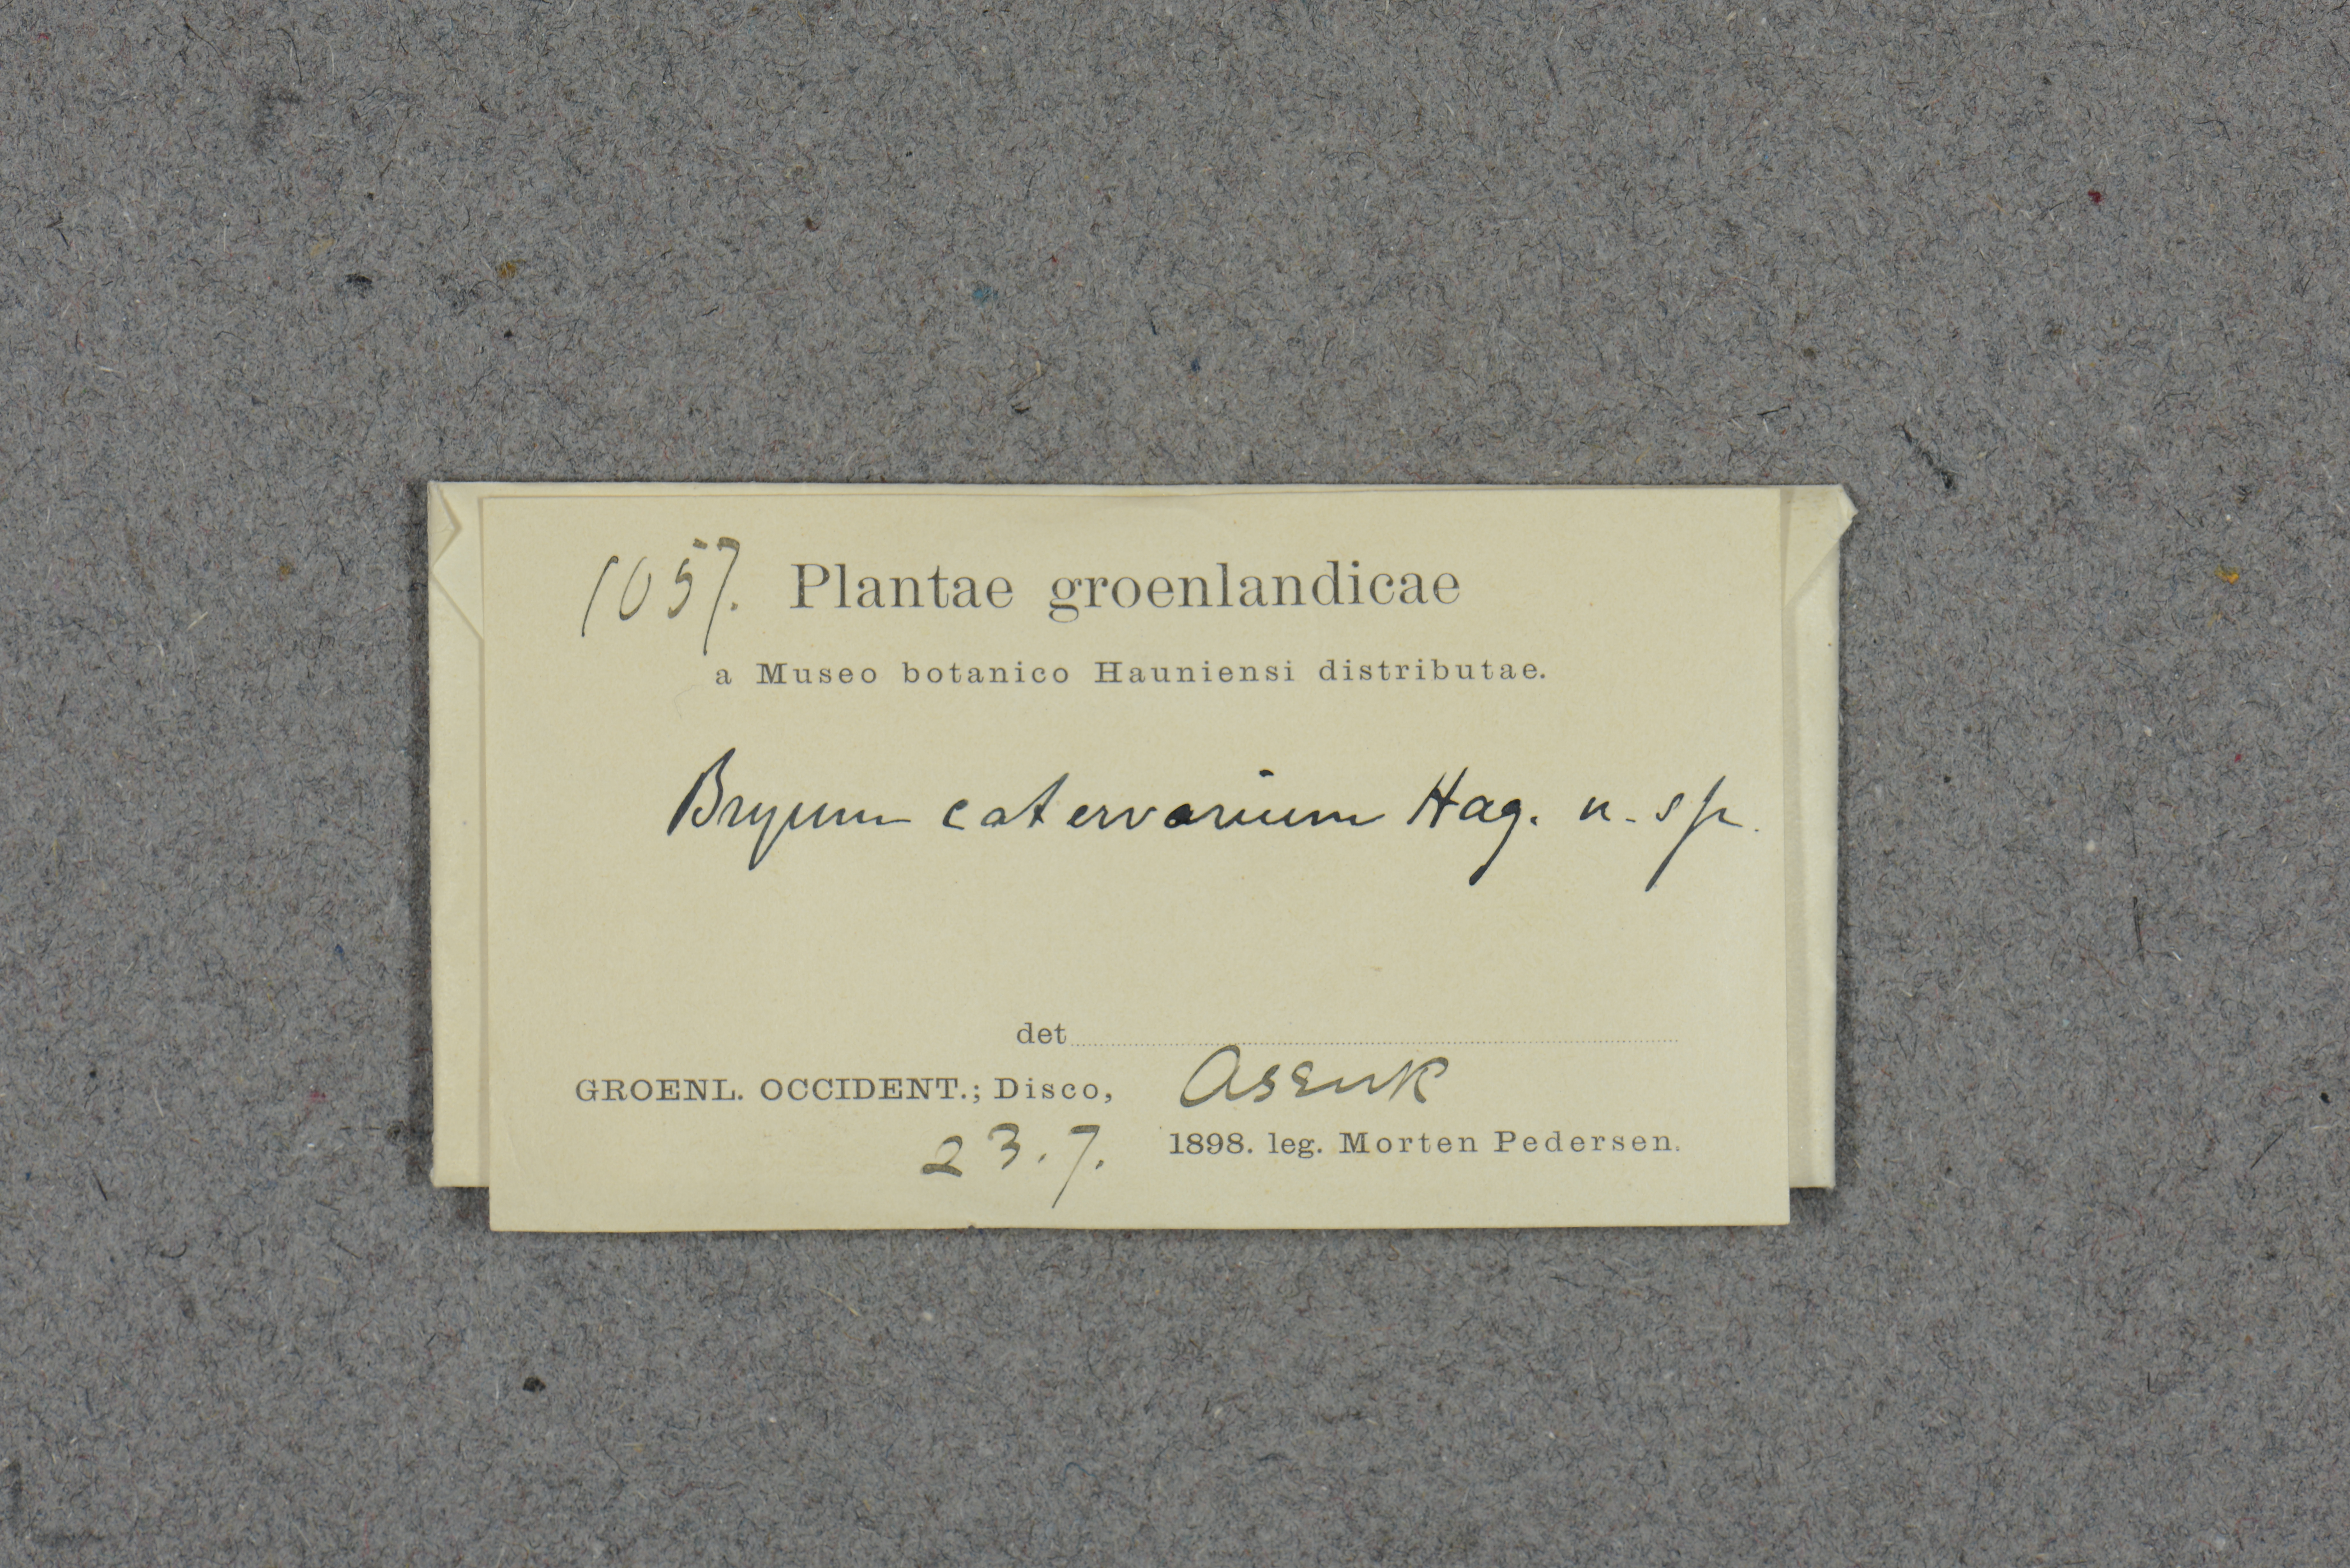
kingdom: Plantae
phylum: Bryophyta
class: Bryopsida
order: Bryales
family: Mniaceae
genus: Pohlia
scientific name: Pohlia drummondii
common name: Drummond's nodding moss
